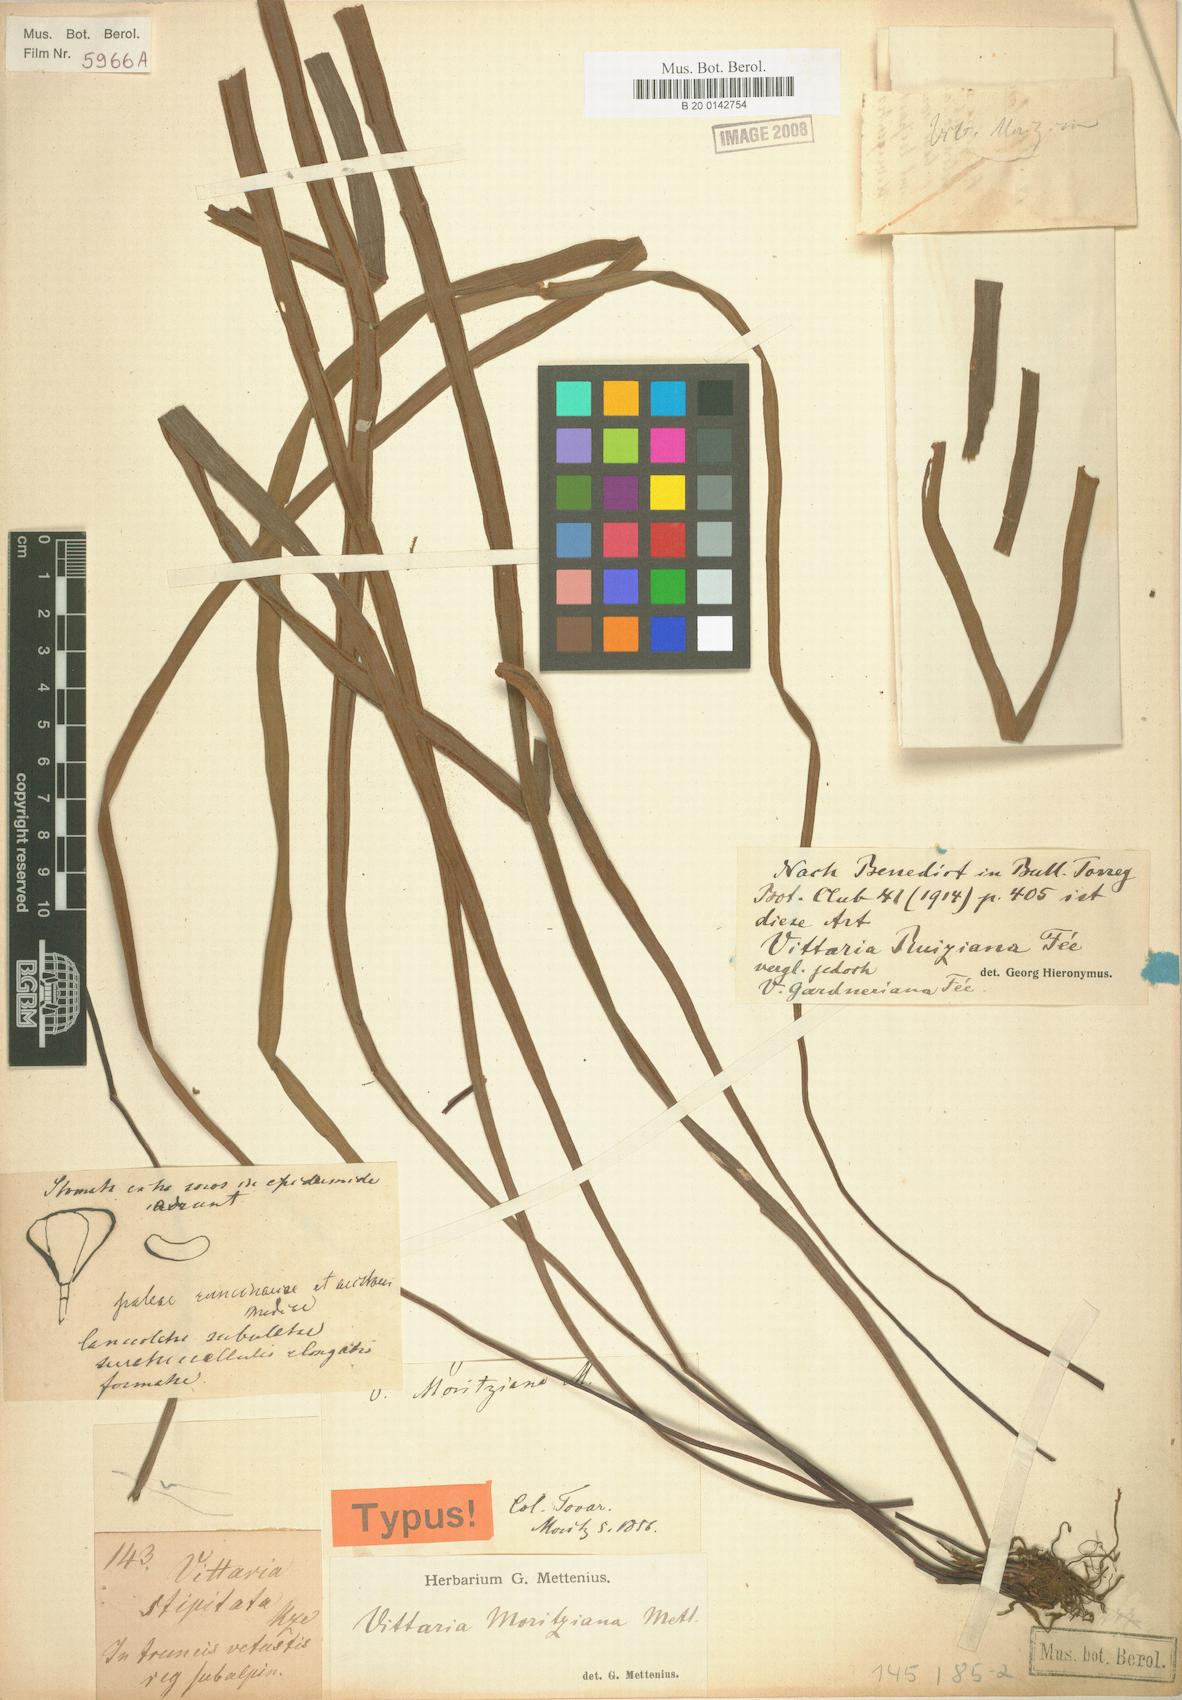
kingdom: Plantae
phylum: Tracheophyta
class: Polypodiopsida
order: Polypodiales
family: Pteridaceae
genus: Radiovittaria
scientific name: Radiovittaria moritziana
